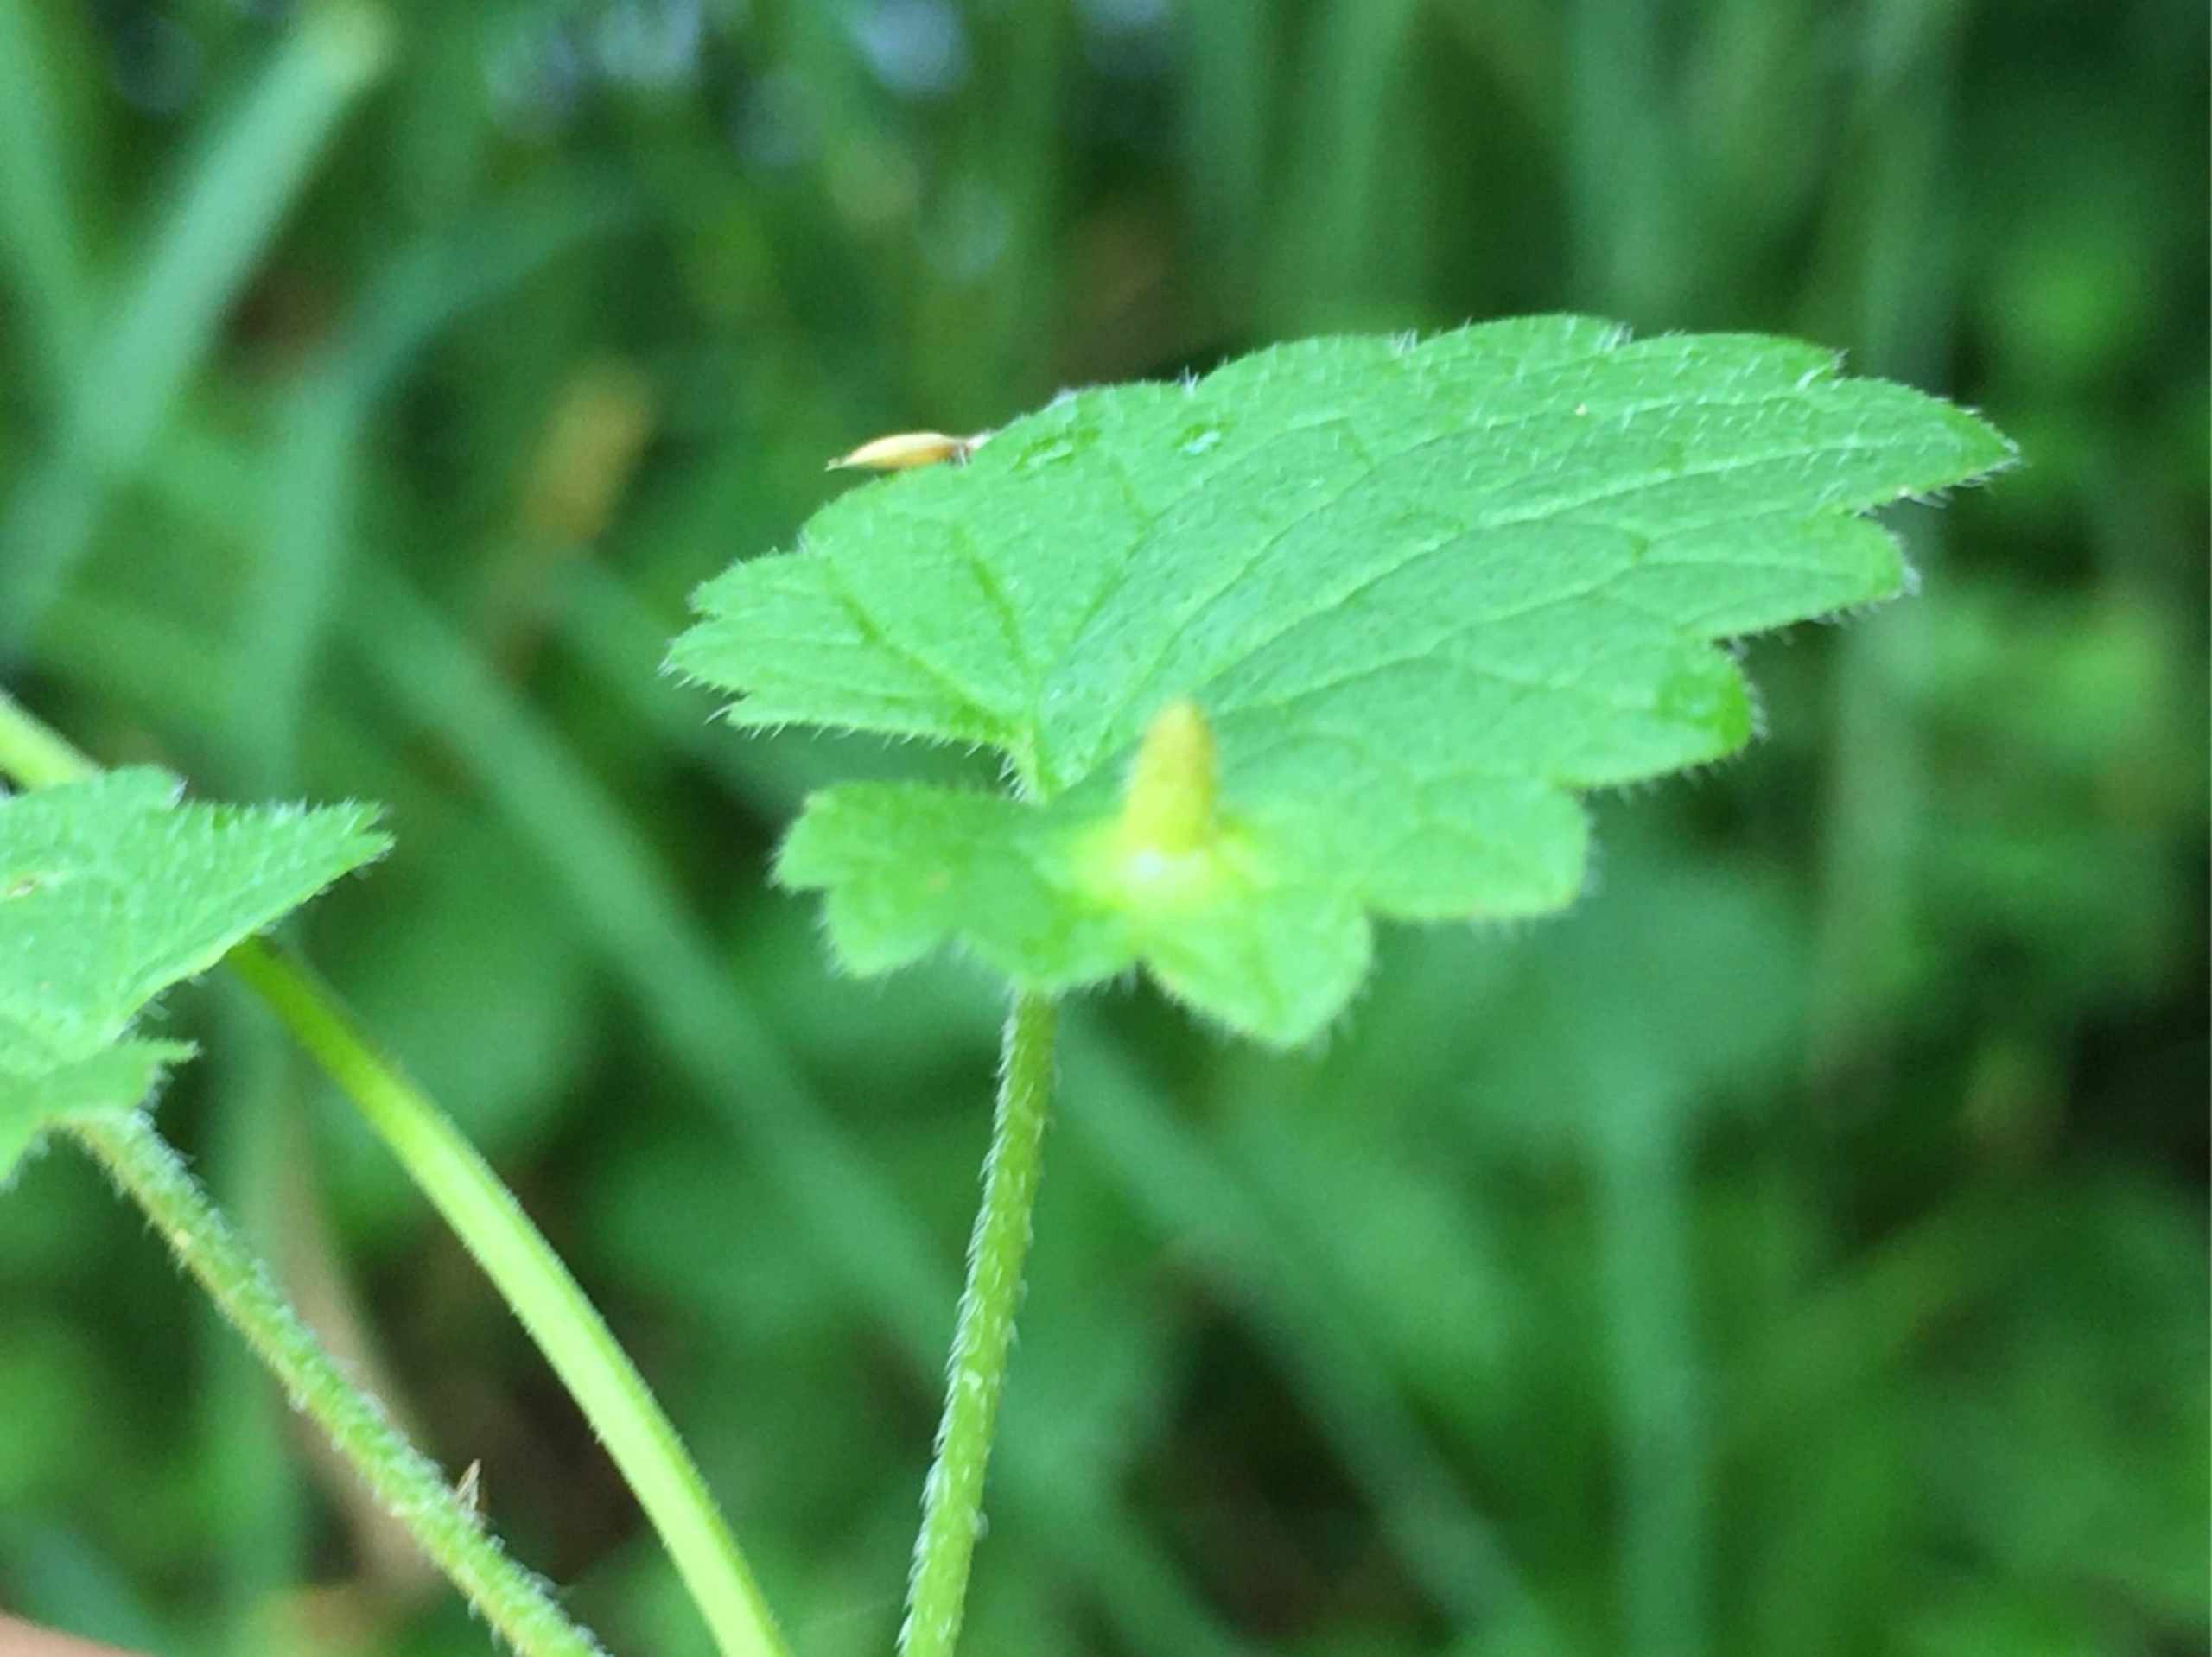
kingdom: Animalia
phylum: Arthropoda
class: Insecta
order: Diptera
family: Cecidomyiidae
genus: Rondaniola
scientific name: Rondaniola bursaria
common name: Hattifnatgalmyg
